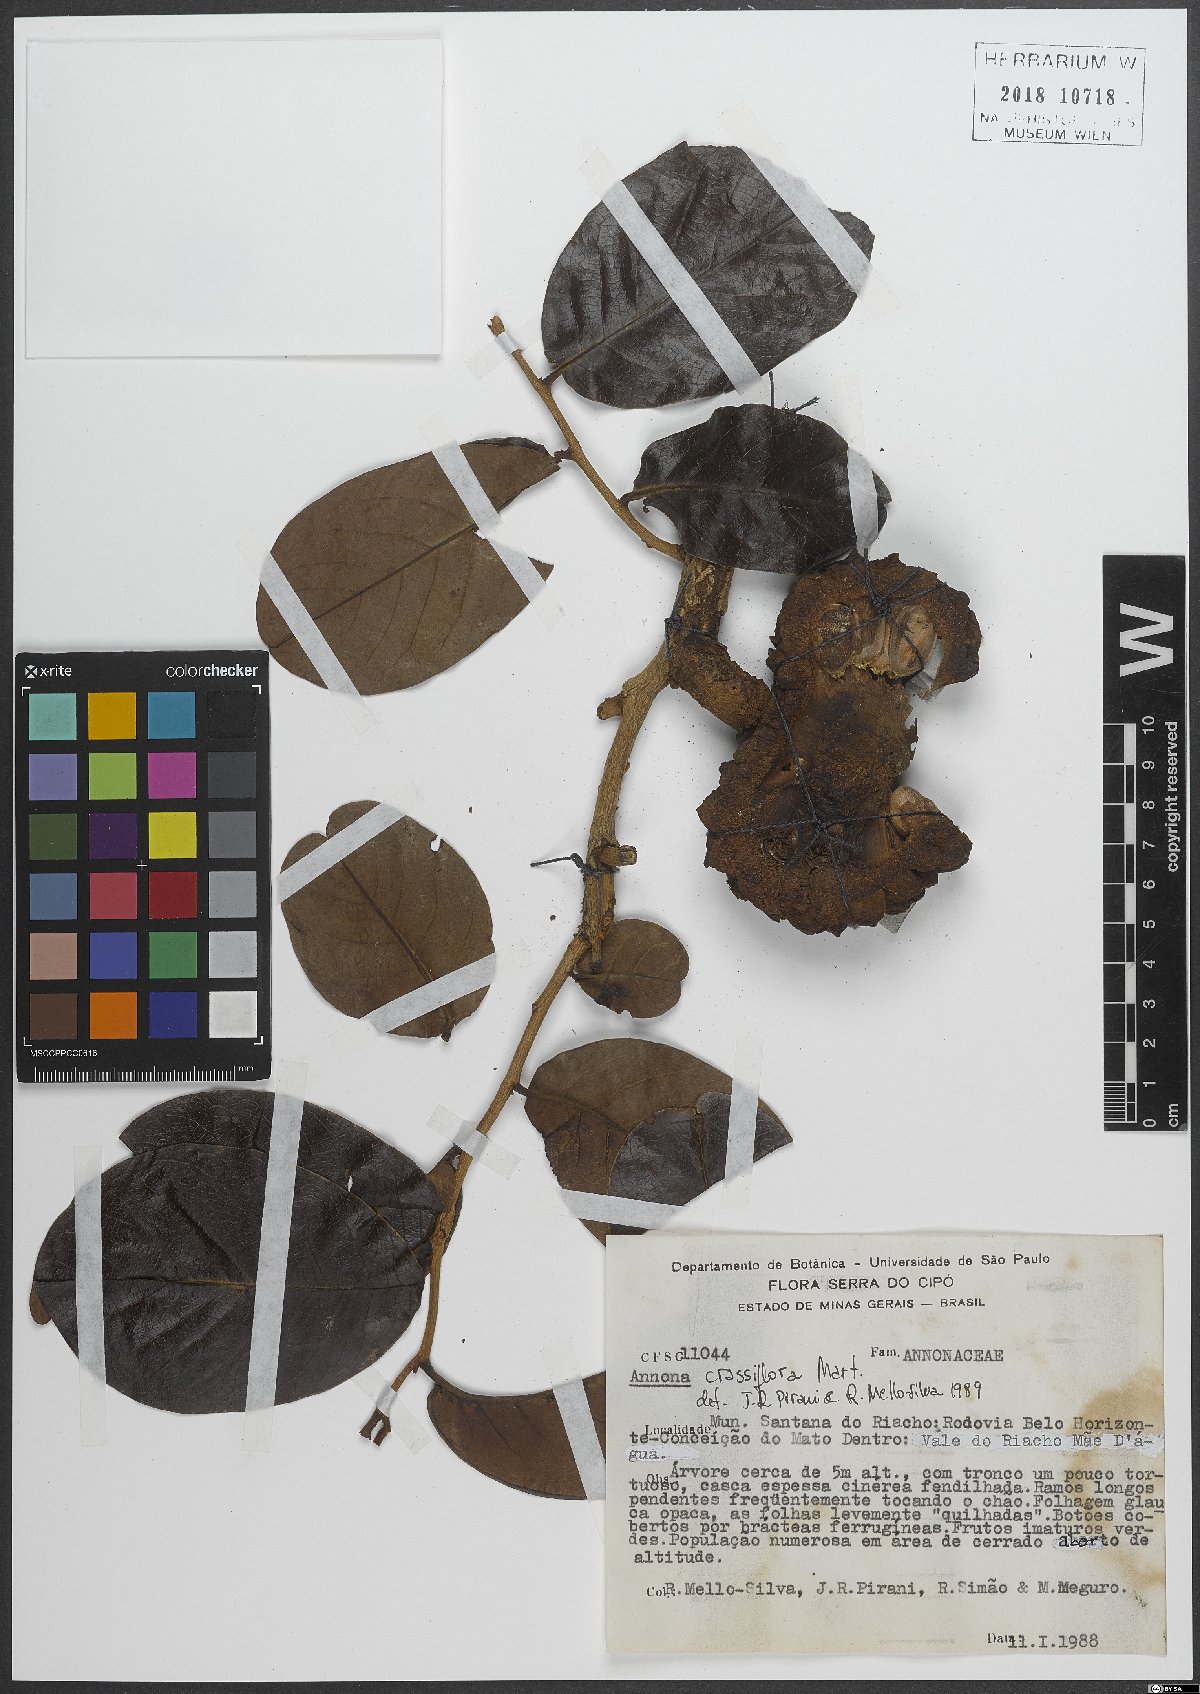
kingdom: Plantae
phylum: Tracheophyta
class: Magnoliopsida
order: Magnoliales
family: Annonaceae
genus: Annona
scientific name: Annona crassiflora
